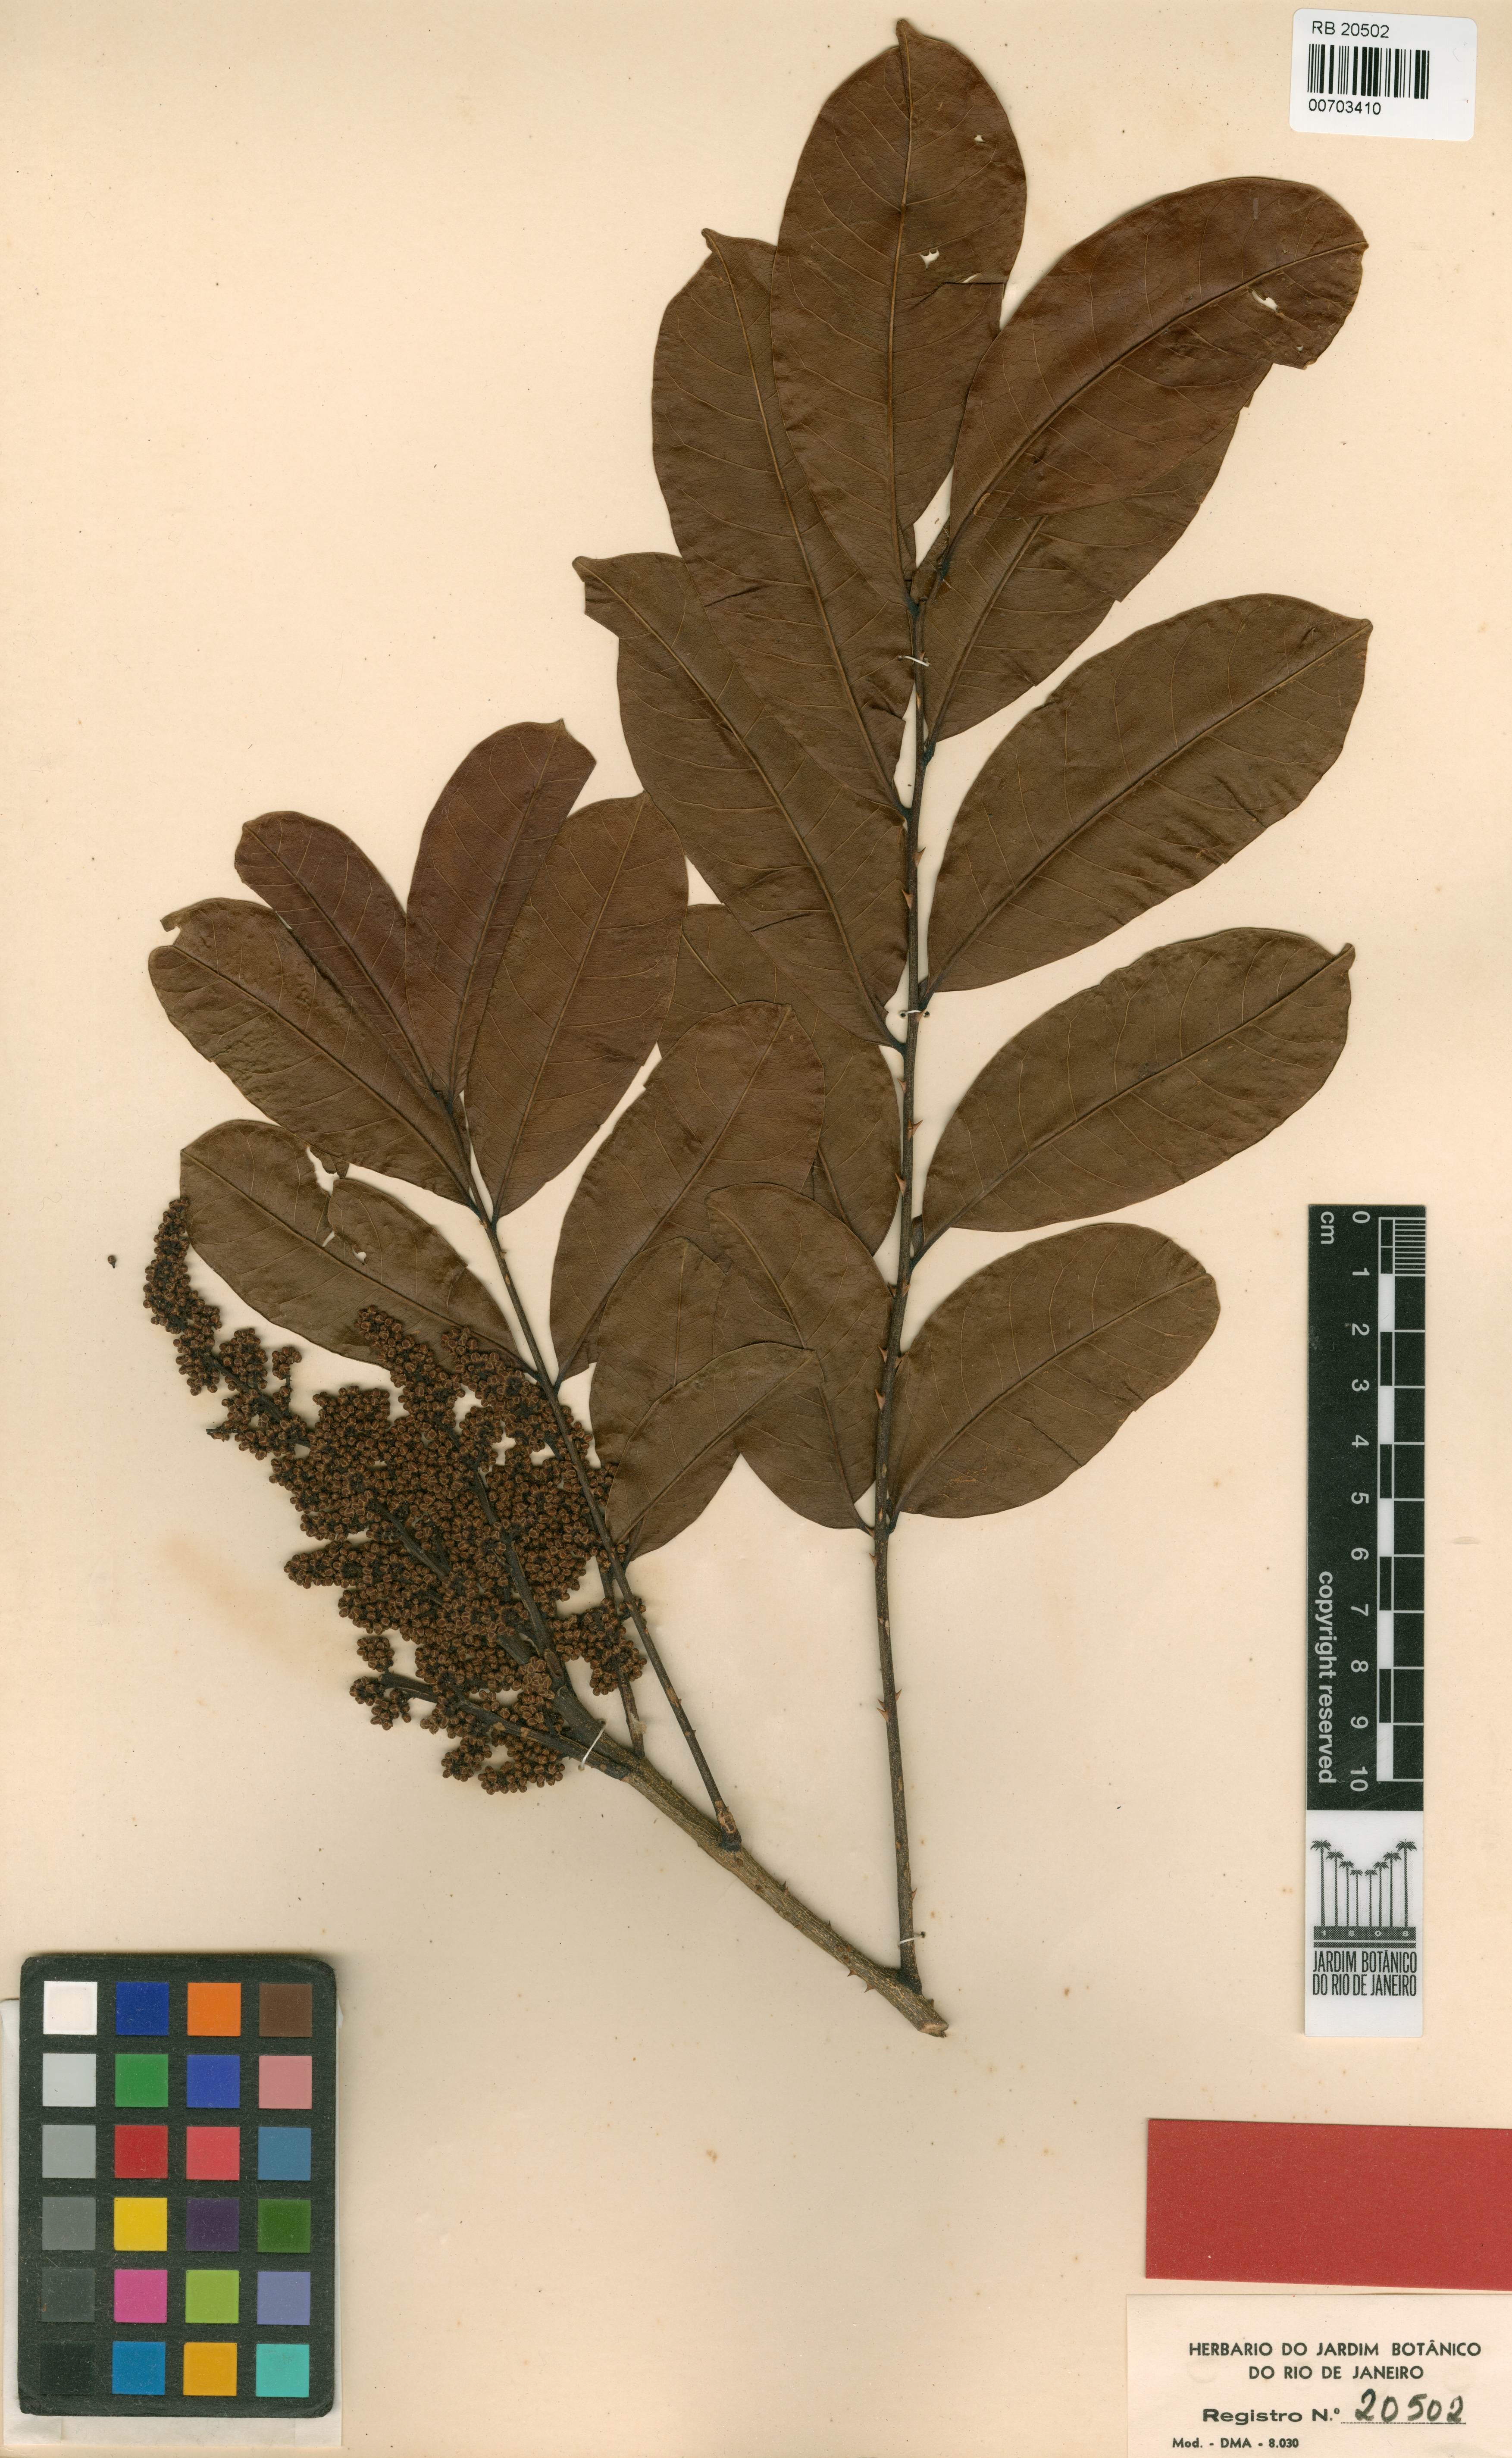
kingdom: Plantae
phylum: Tracheophyta
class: Magnoliopsida
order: Sapindales
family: Rutaceae
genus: Zanthoxylum
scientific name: Zanthoxylum compactum
